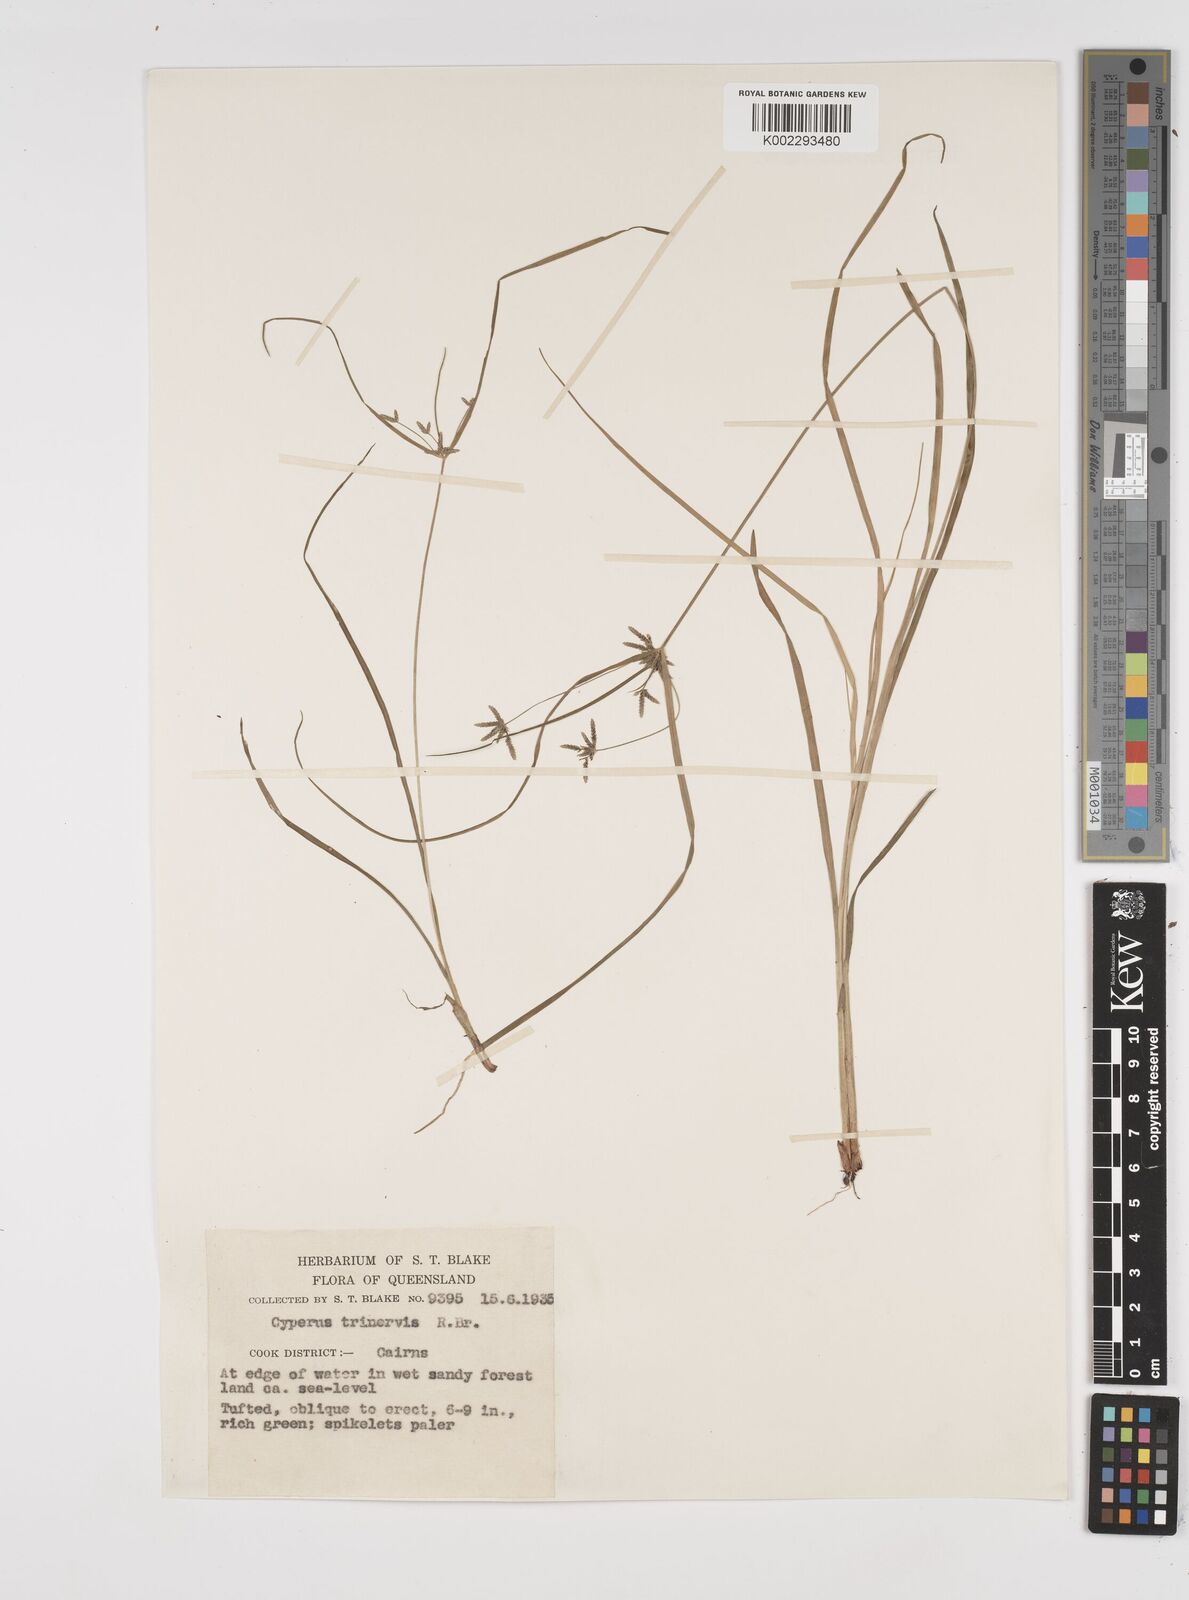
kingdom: Plantae
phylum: Tracheophyta
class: Liliopsida
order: Poales
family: Cyperaceae
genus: Cyperus
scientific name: Cyperus trinervis
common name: Australian flatsedge
